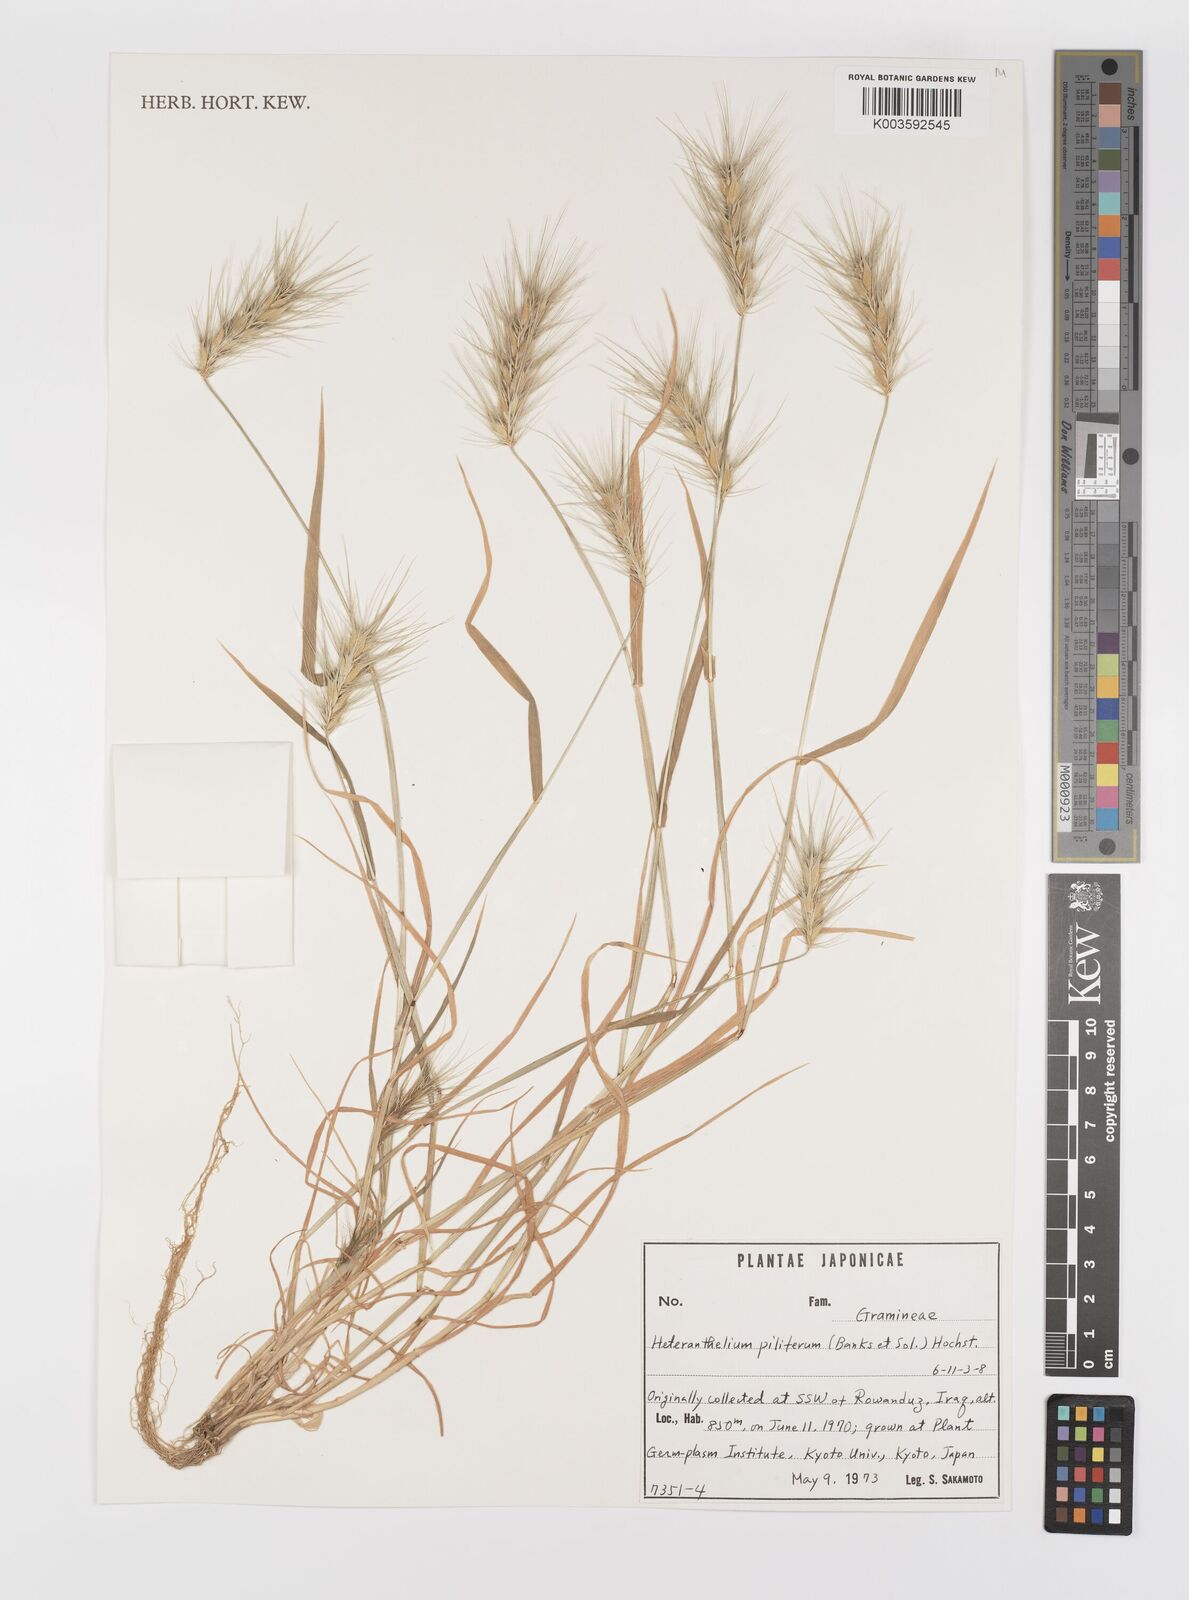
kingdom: Plantae
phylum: Tracheophyta
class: Liliopsida
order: Poales
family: Poaceae
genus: Heteranthelium
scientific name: Heteranthelium piliferum
